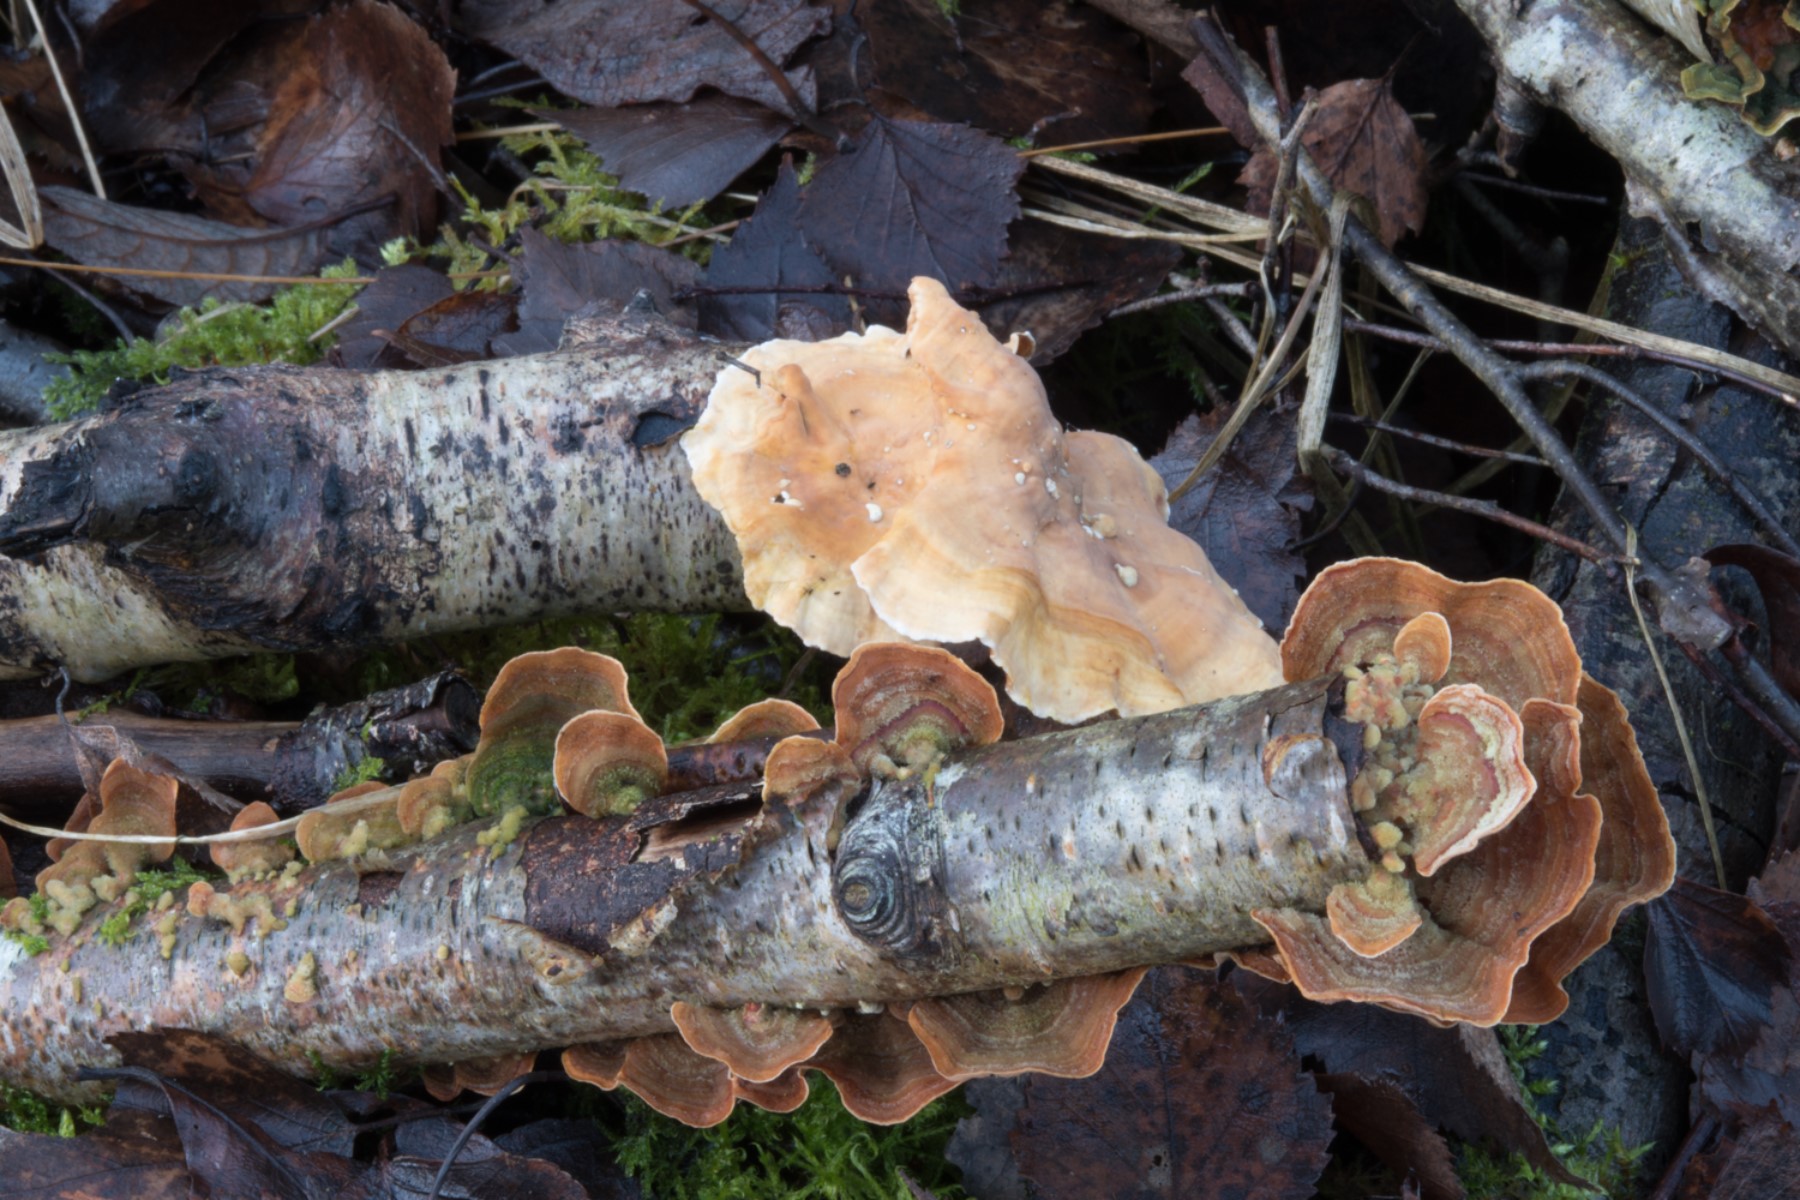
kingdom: Fungi
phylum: Basidiomycota
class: Agaricomycetes
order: Russulales
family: Stereaceae
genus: Stereum
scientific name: Stereum subtomentosum
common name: smuk lædersvamp
